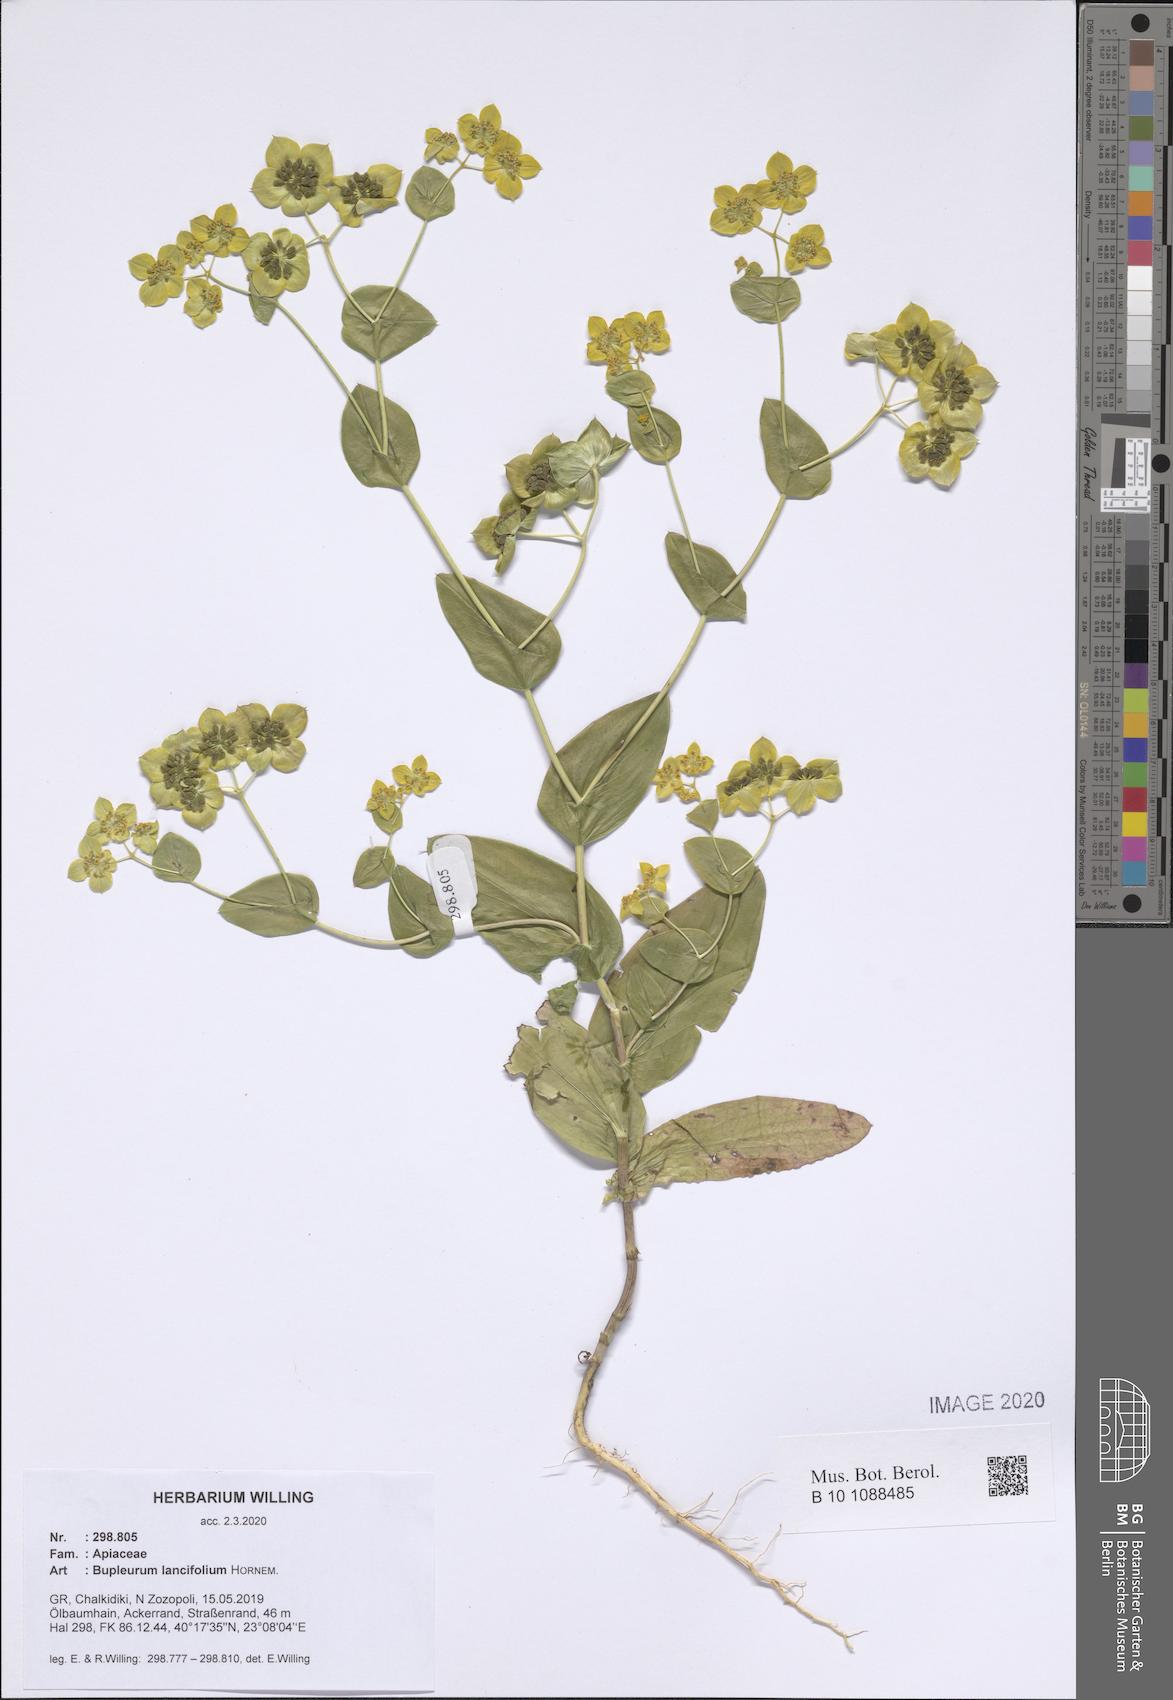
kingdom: Plantae
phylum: Tracheophyta
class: Magnoliopsida
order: Apiales
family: Apiaceae
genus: Bupleurum
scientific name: Bupleurum lancifolium
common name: False thorow-wax
